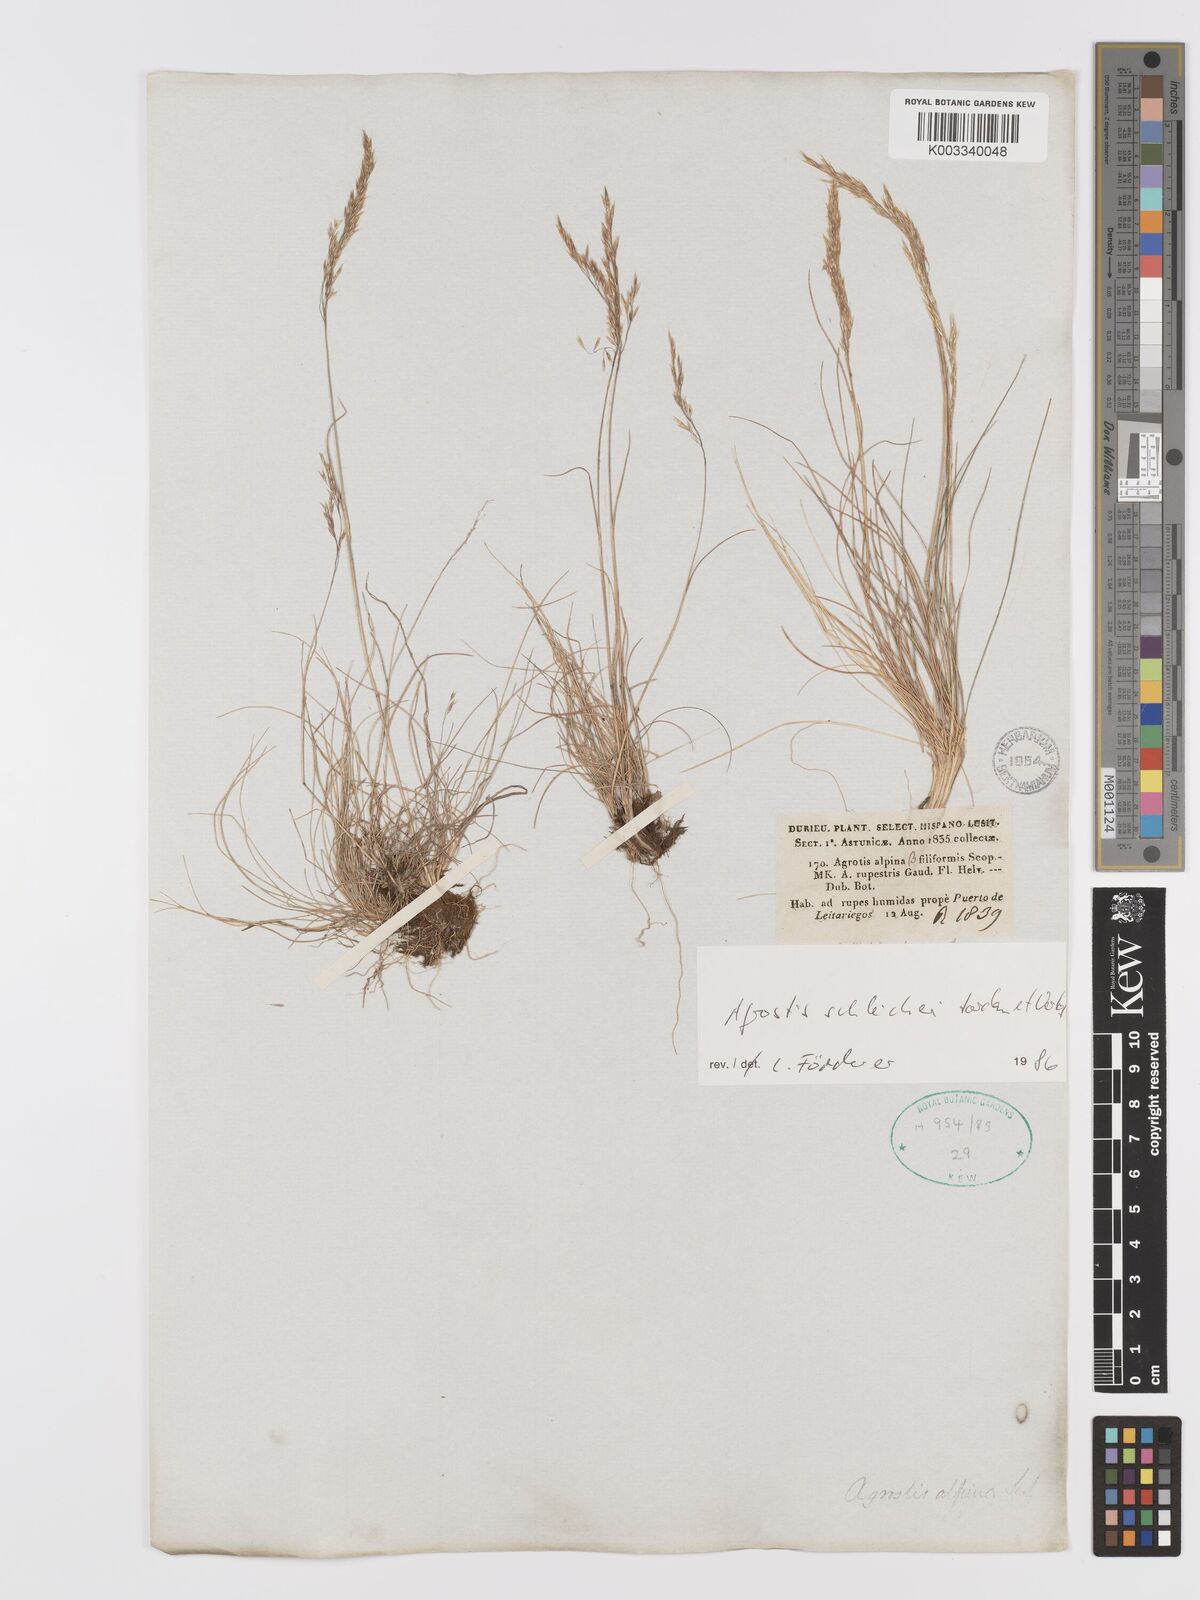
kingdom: Plantae
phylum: Tracheophyta
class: Liliopsida
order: Poales
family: Poaceae
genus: Alpagrostis
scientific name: Alpagrostis schleicheri
